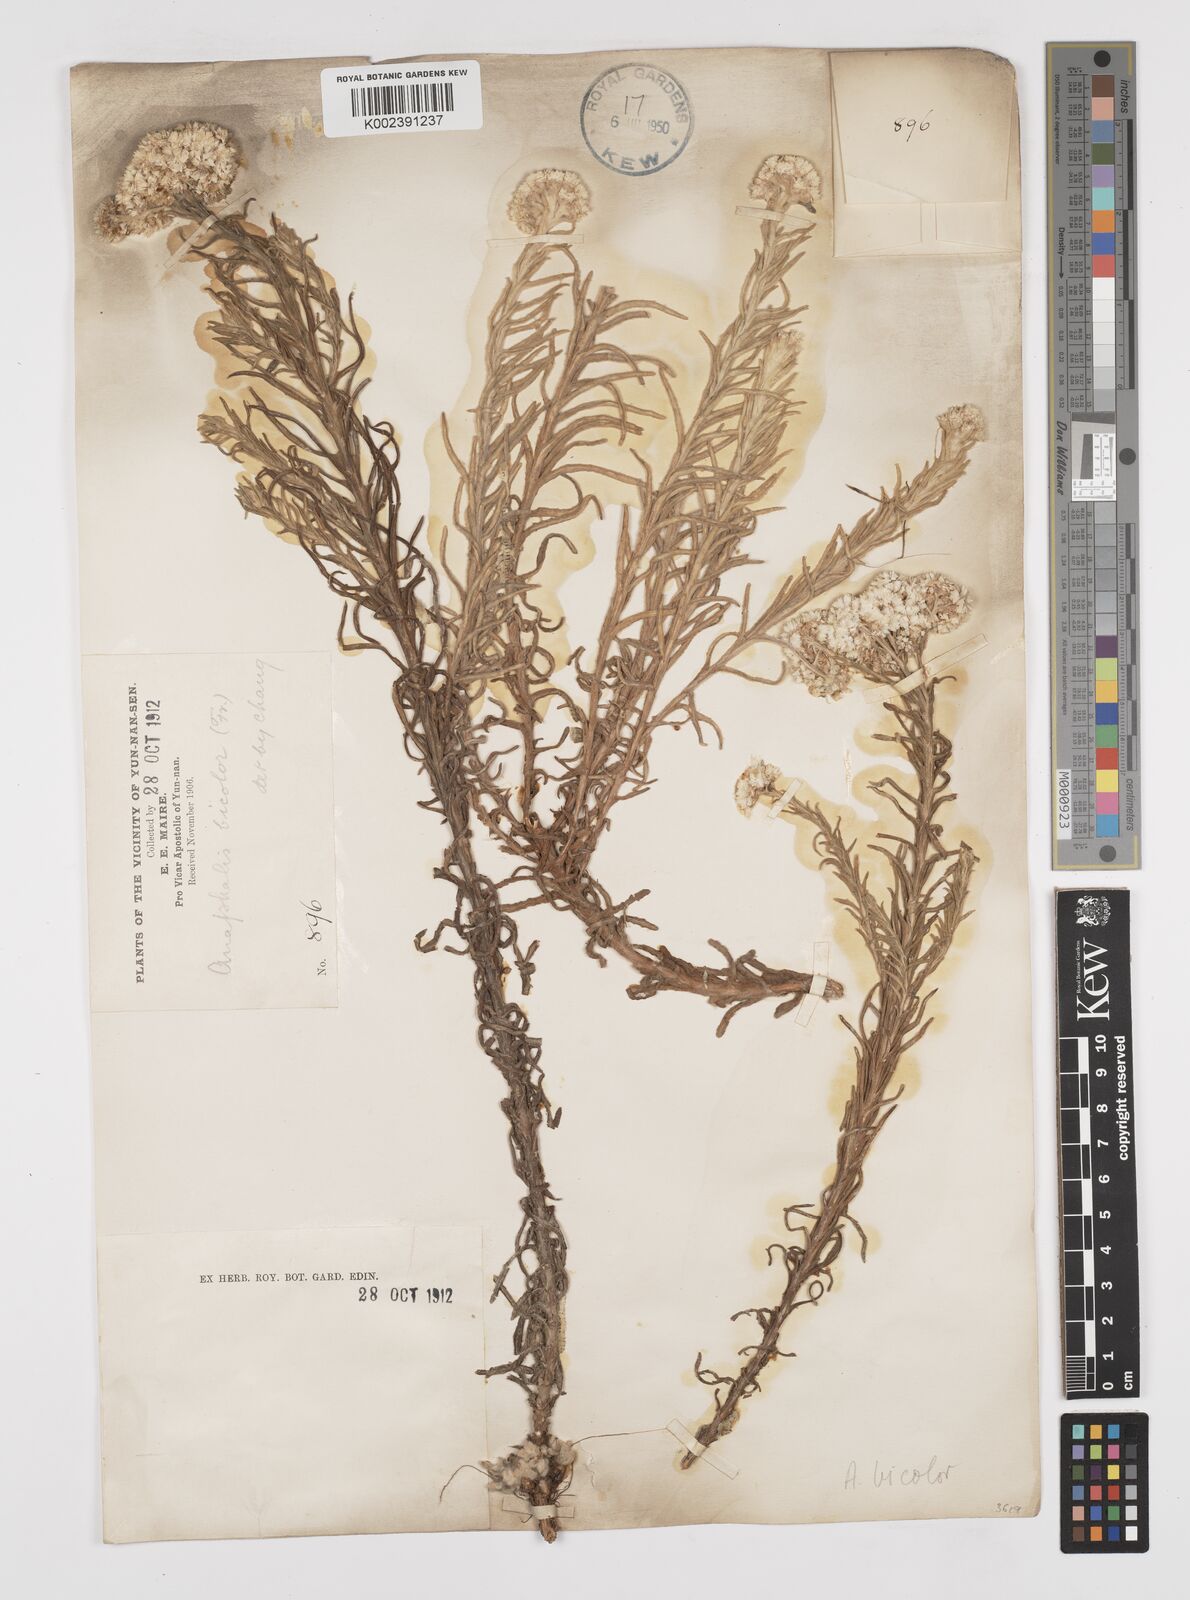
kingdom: Plantae
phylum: Tracheophyta
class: Magnoliopsida
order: Asterales
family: Asteraceae
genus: Anaphalis
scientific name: Anaphalis bicolor
